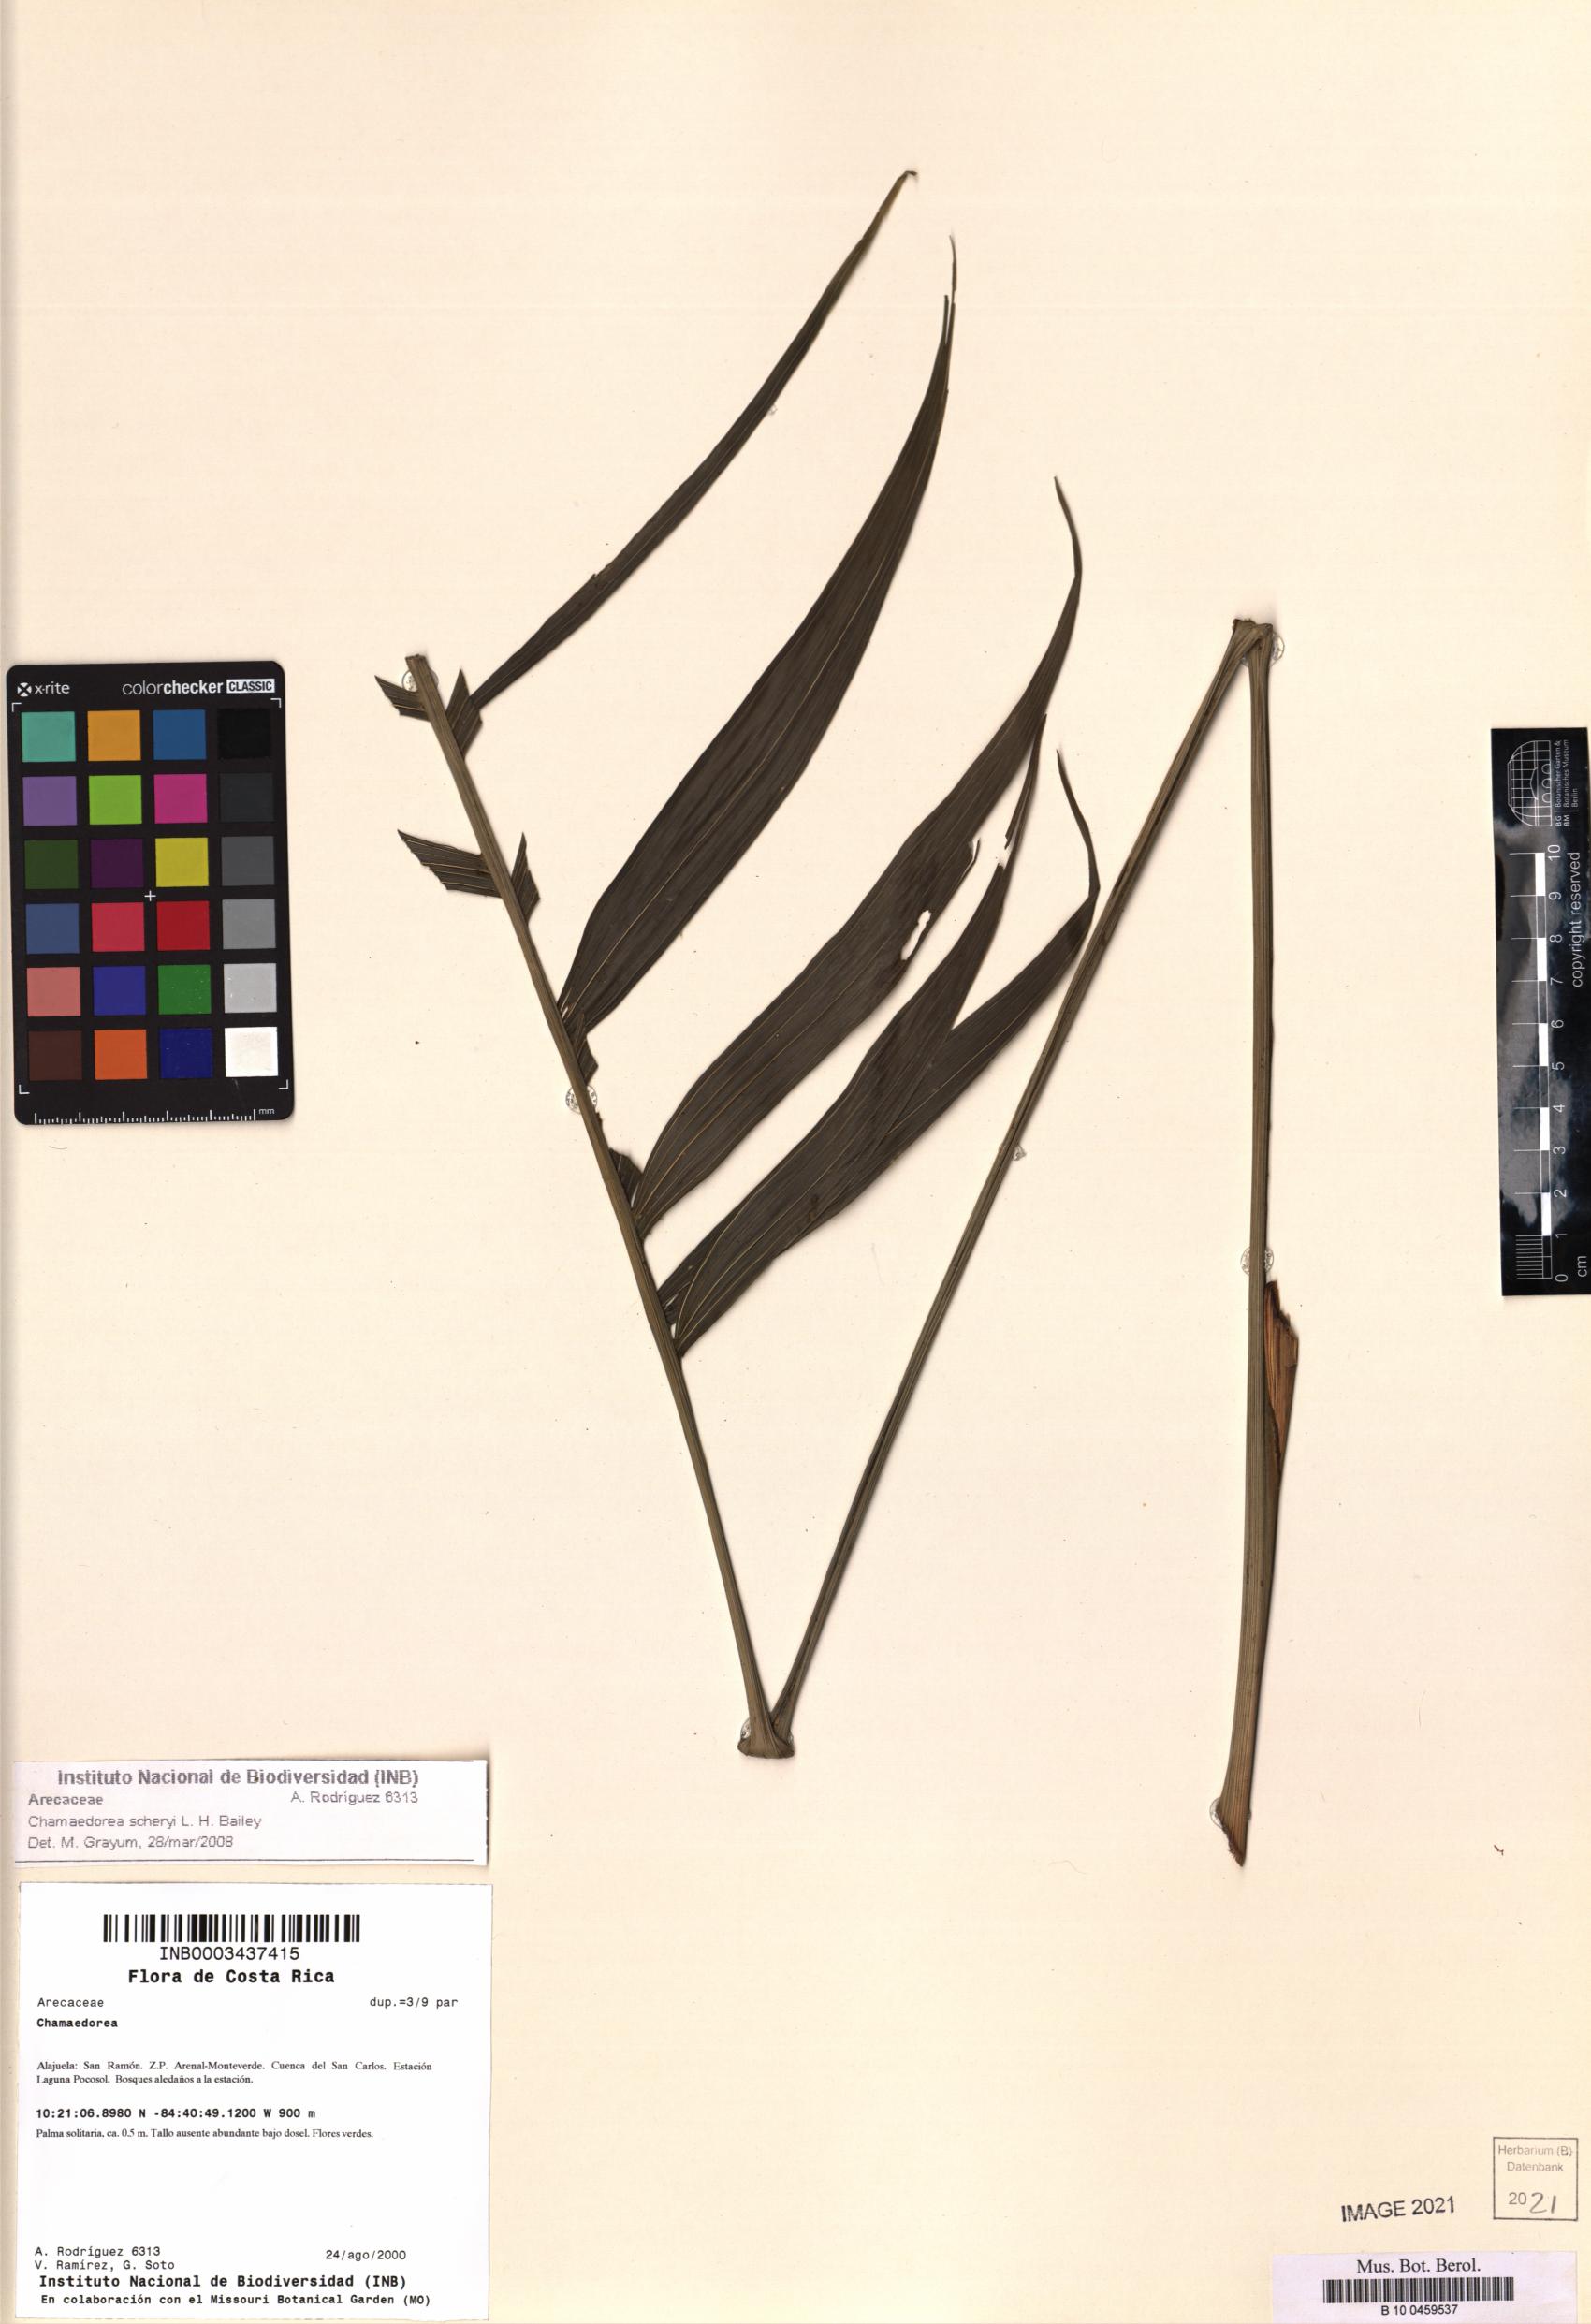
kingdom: Plantae
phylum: Tracheophyta
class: Liliopsida
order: Arecales
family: Arecaceae
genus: Chamaedorea
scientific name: Chamaedorea scheryi
